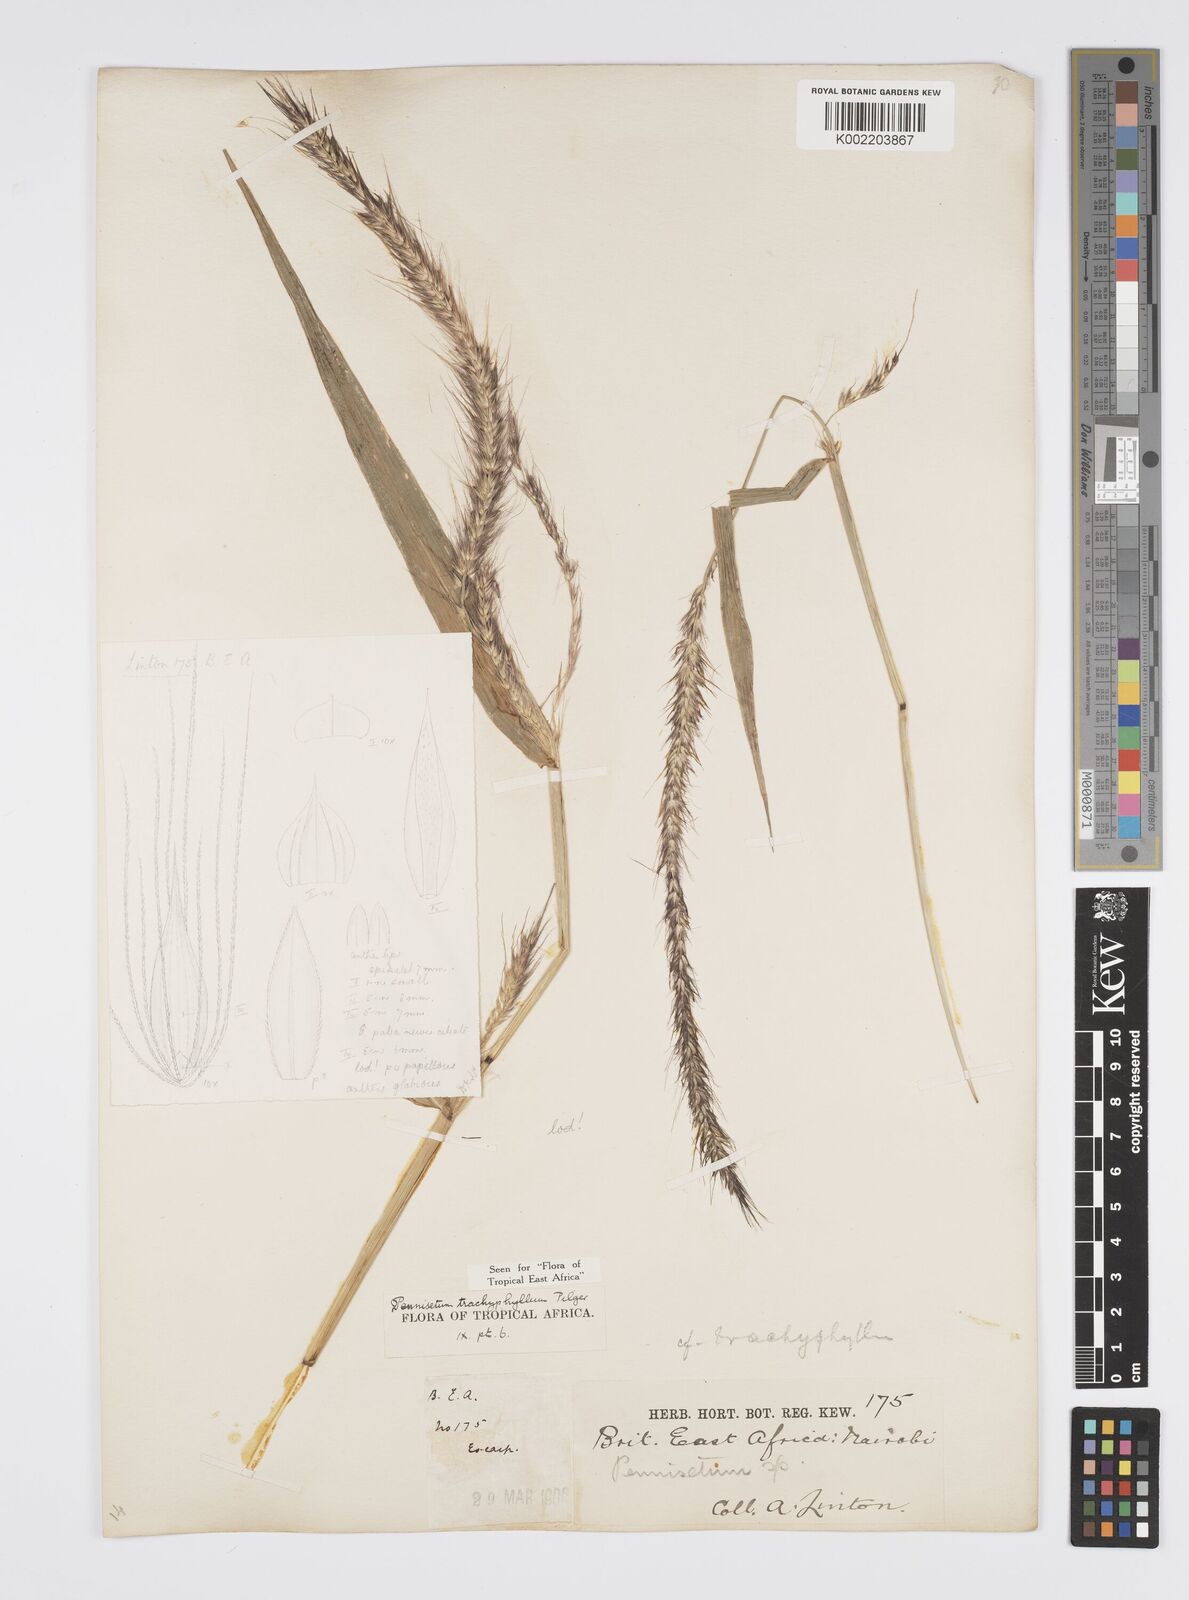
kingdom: Plantae
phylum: Tracheophyta
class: Liliopsida
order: Poales
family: Poaceae
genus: Cenchrus
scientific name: Cenchrus trachyphyllus
